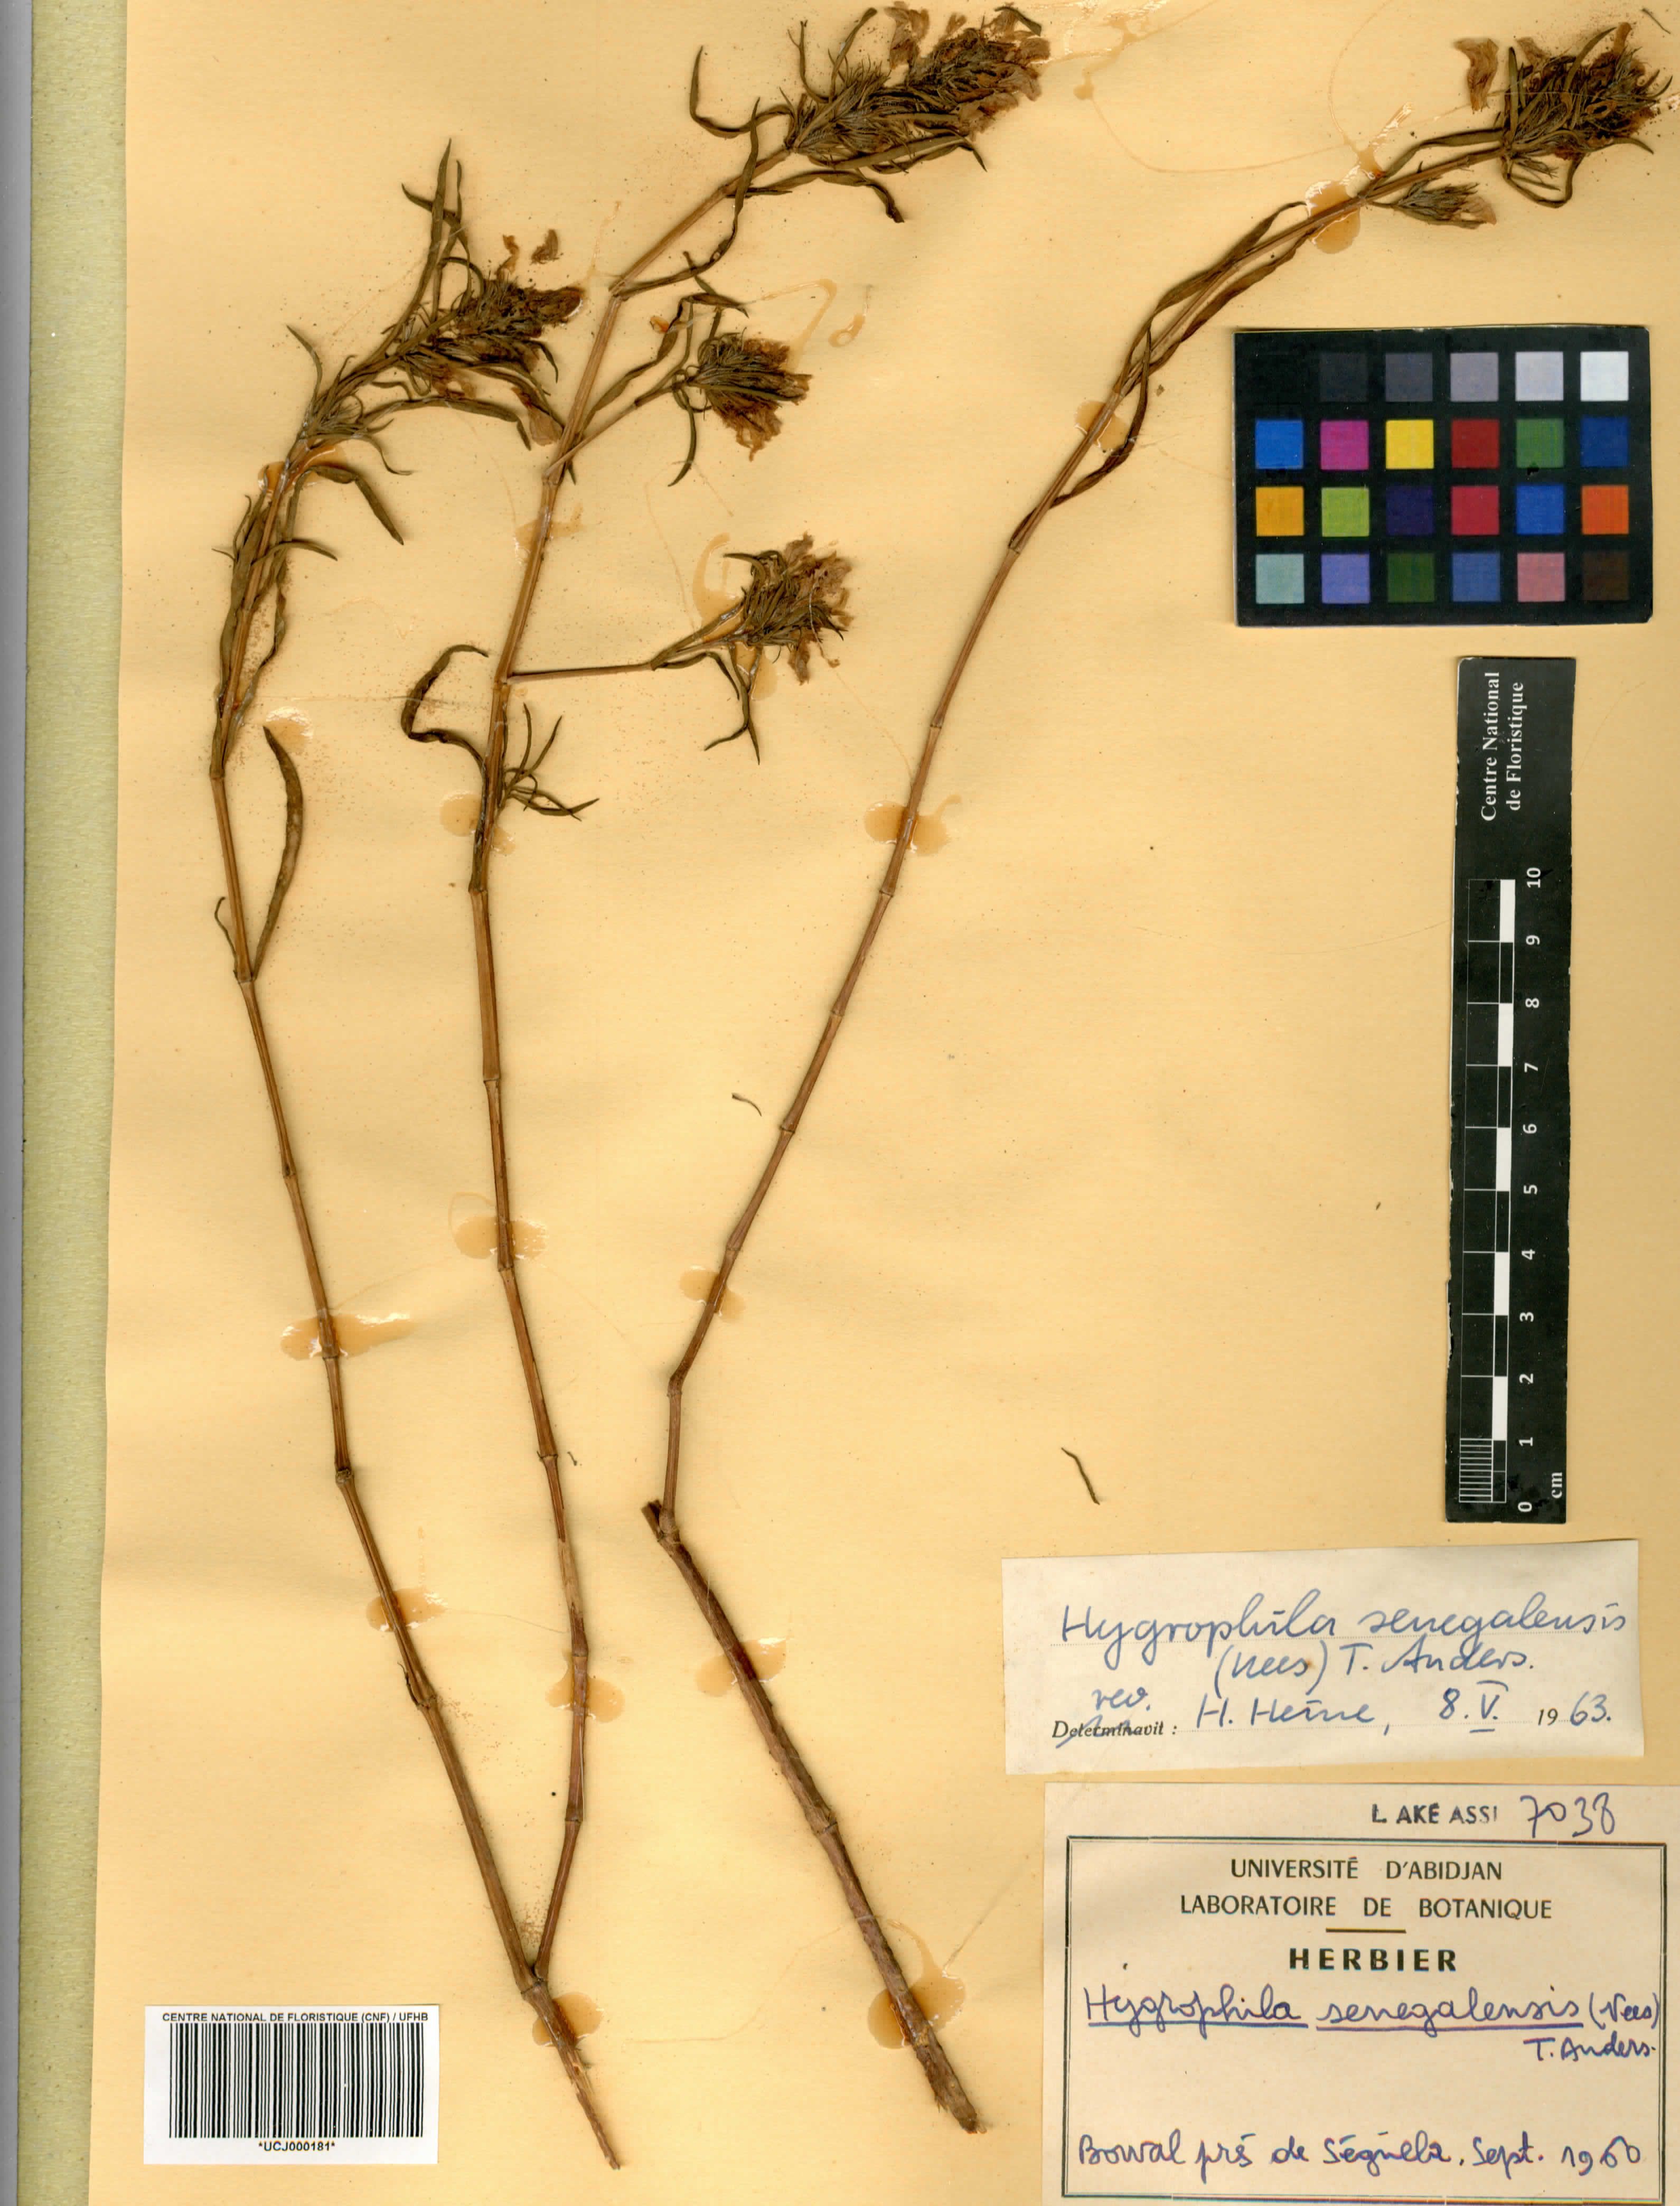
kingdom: Plantae
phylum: Tracheophyta
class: Magnoliopsida
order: Lamiales
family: Acanthaceae
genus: Hygrophila
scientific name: Hygrophila micrantha
